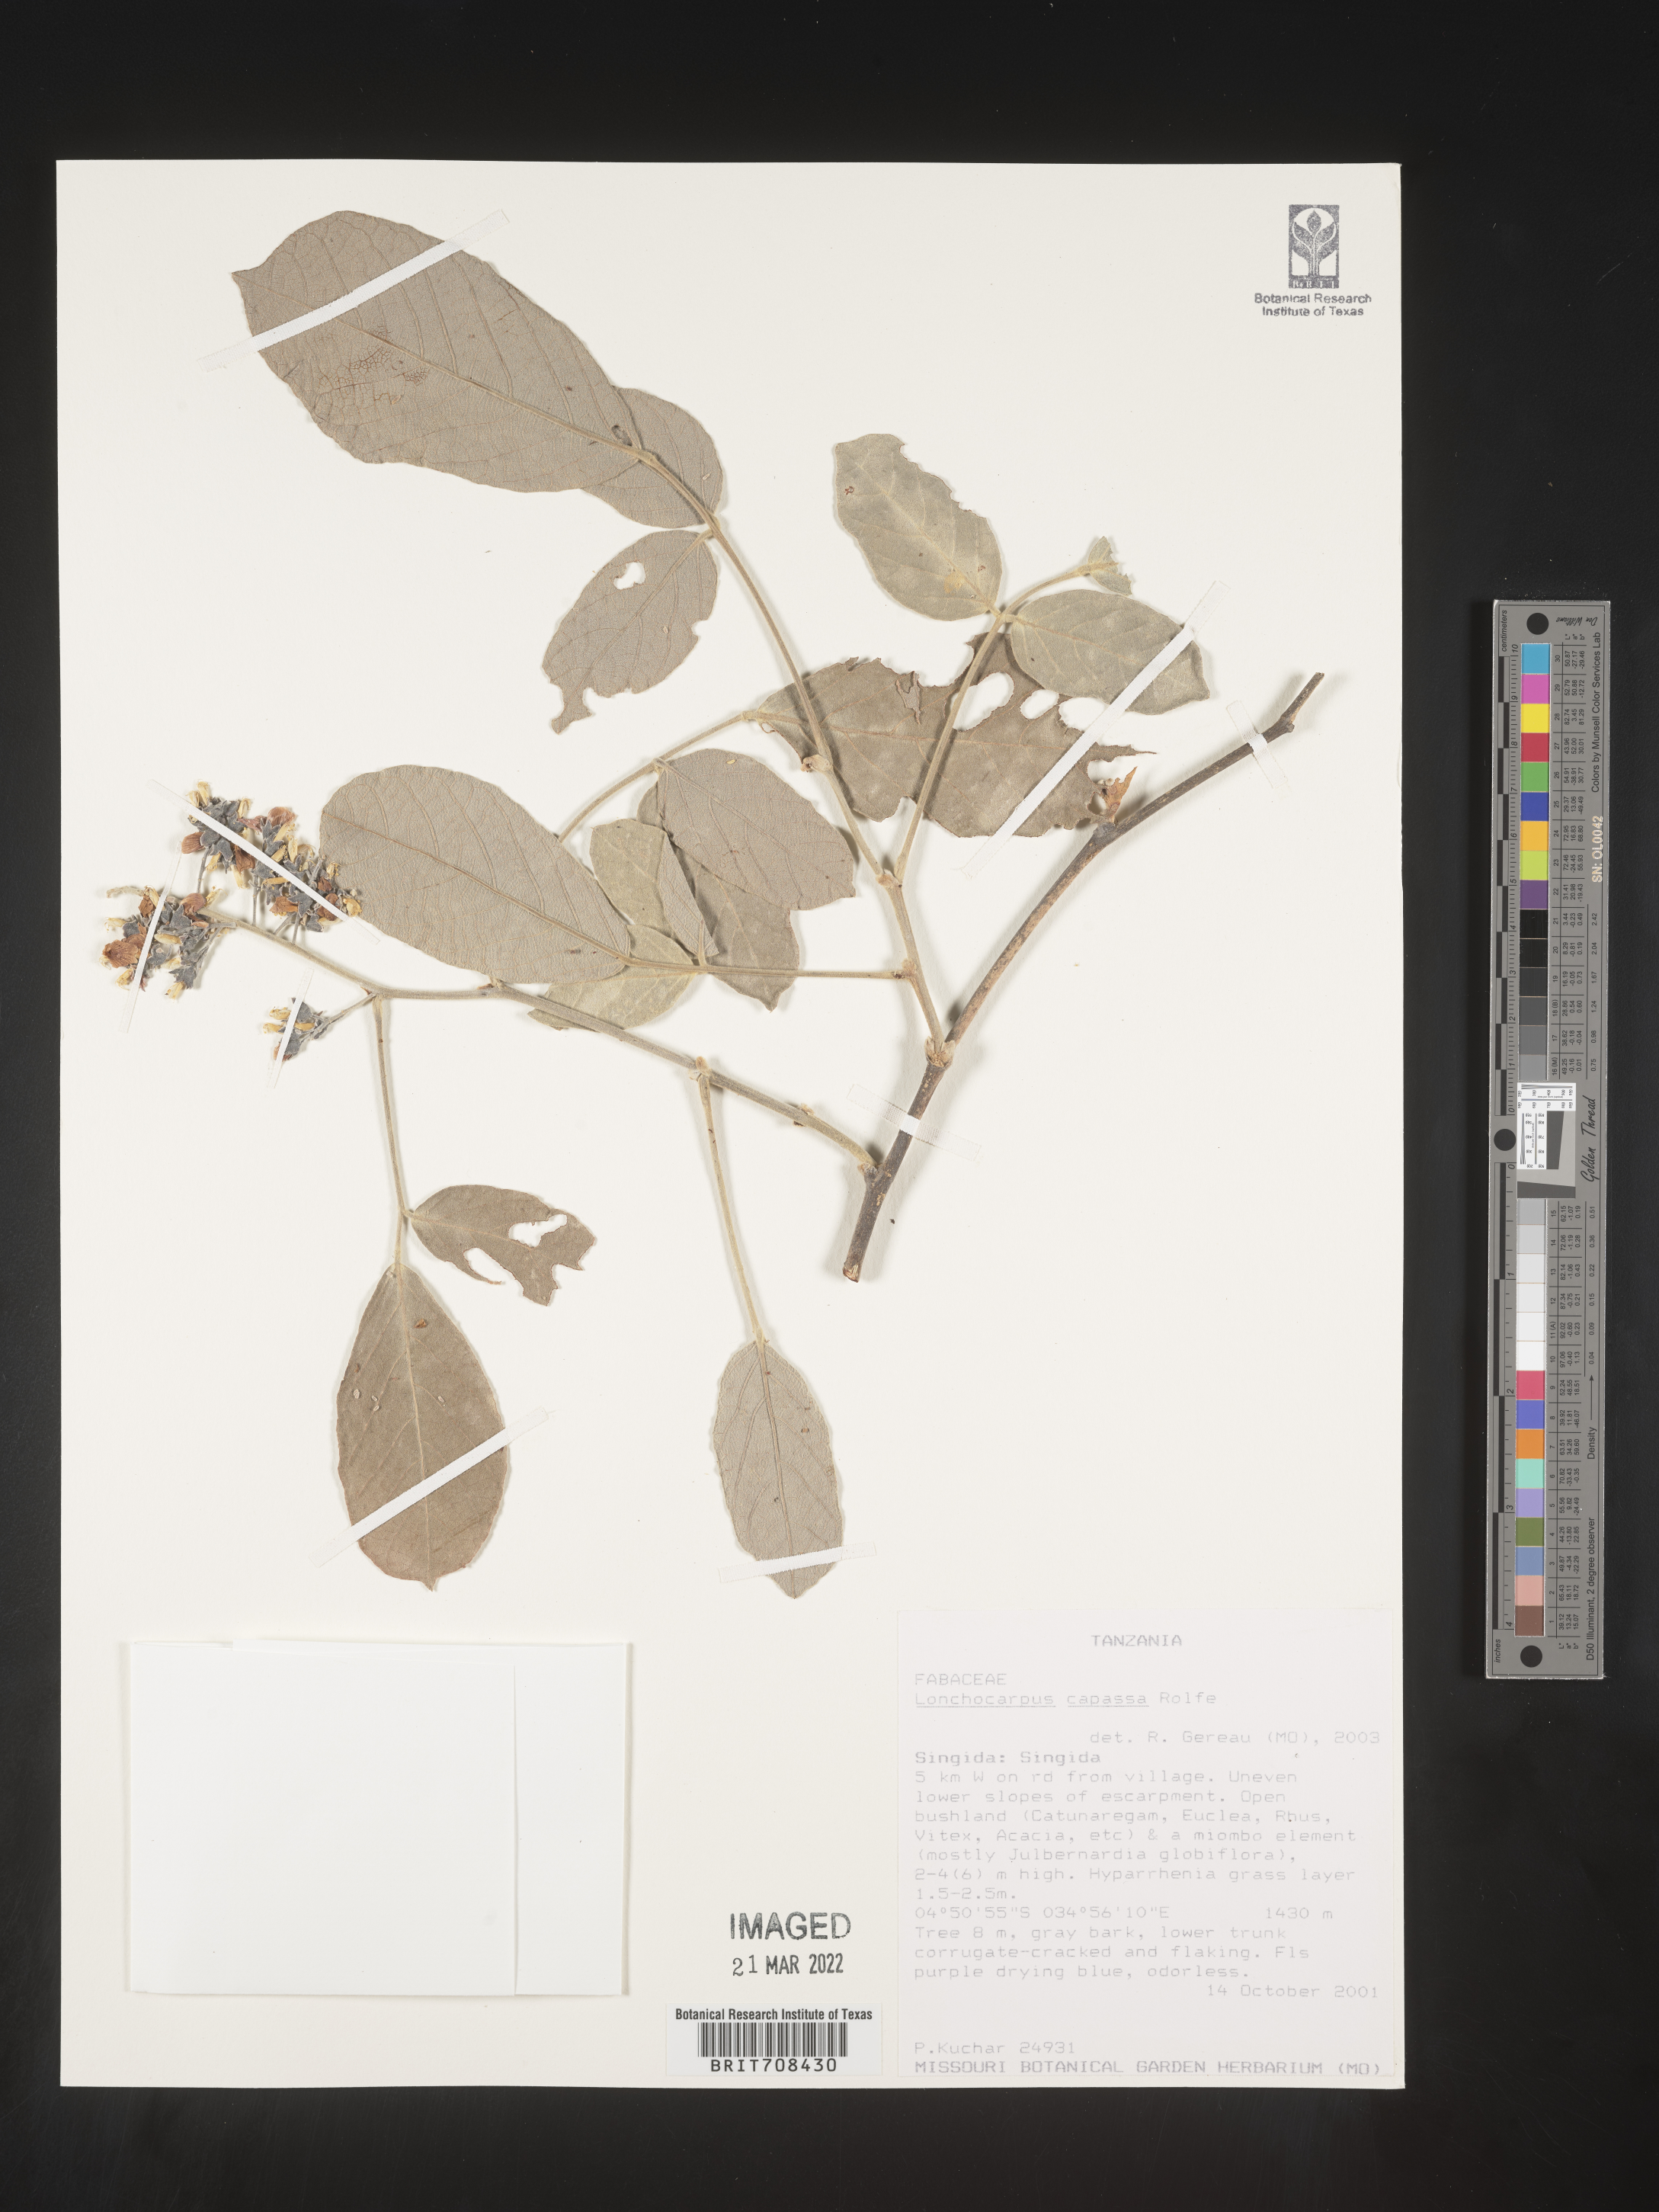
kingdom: Plantae
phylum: Tracheophyta
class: Magnoliopsida
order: Fabales
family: Fabaceae
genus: Lonchocarpus
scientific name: Lonchocarpus
